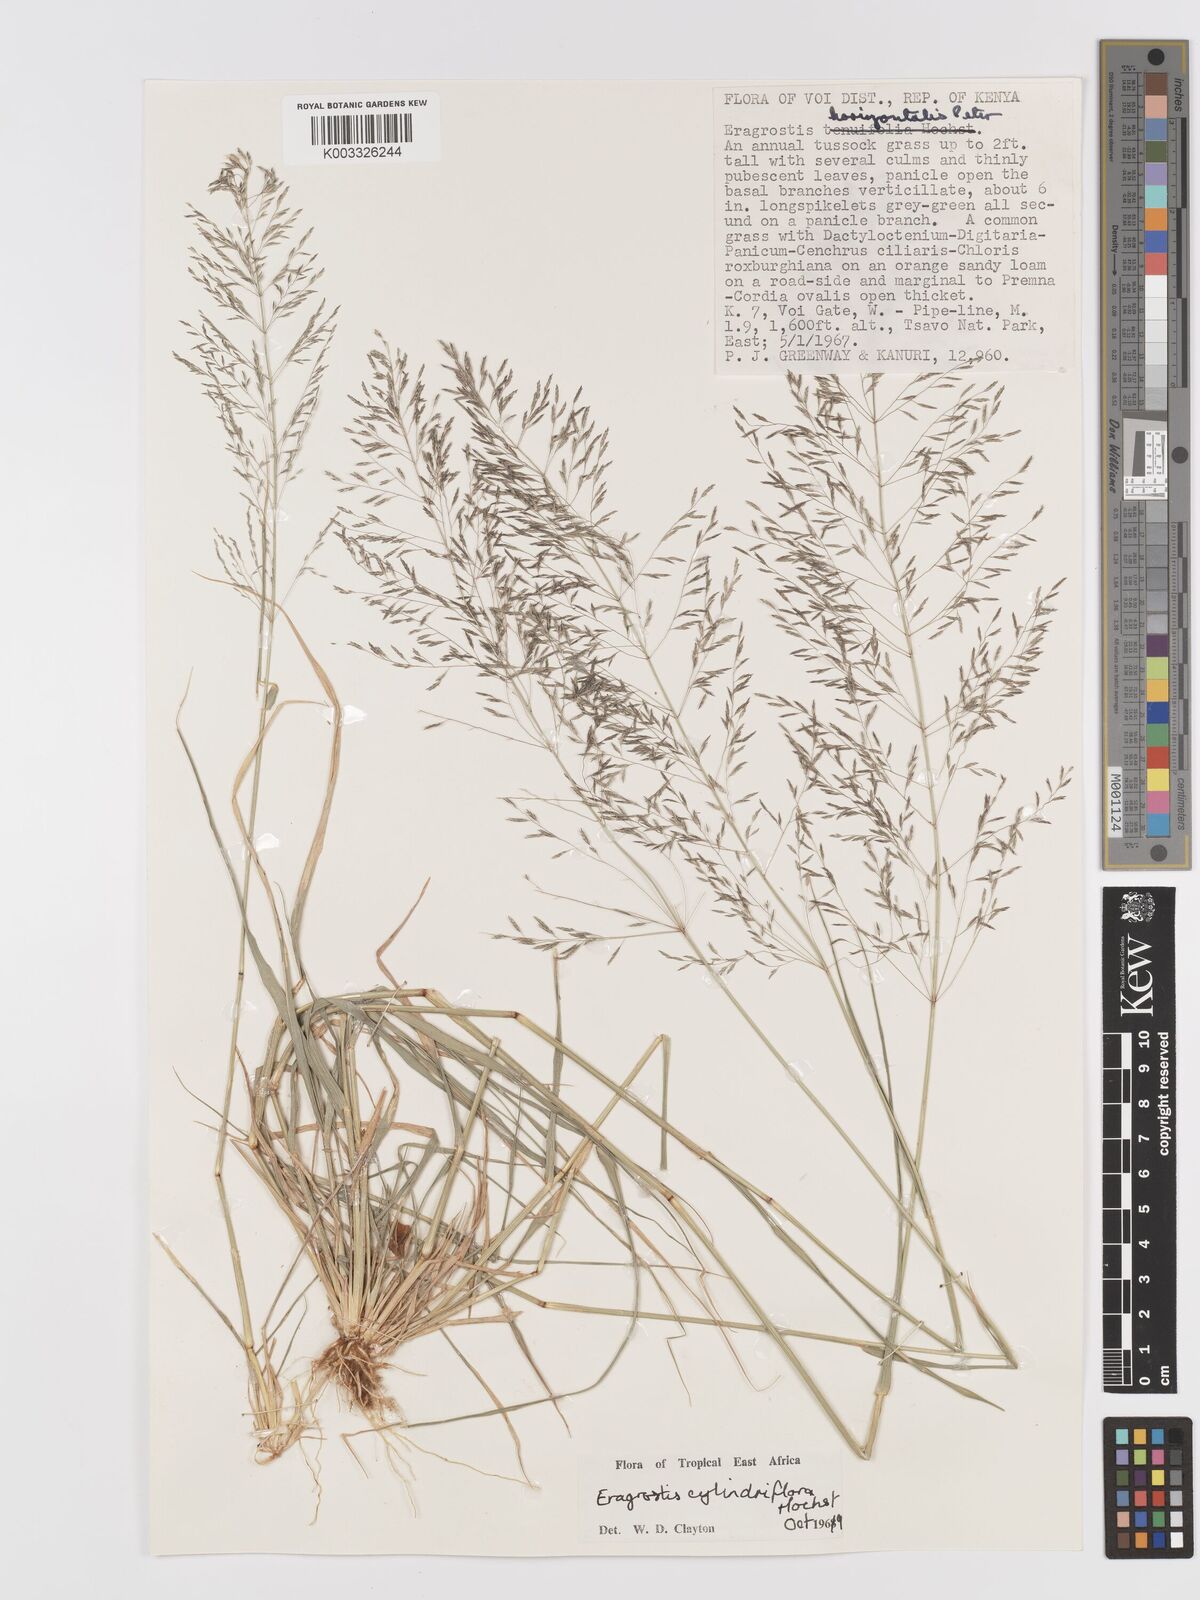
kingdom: Plantae
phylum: Tracheophyta
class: Liliopsida
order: Poales
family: Poaceae
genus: Eragrostis
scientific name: Eragrostis cylindriflora
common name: Cylinderflower lovegrass
